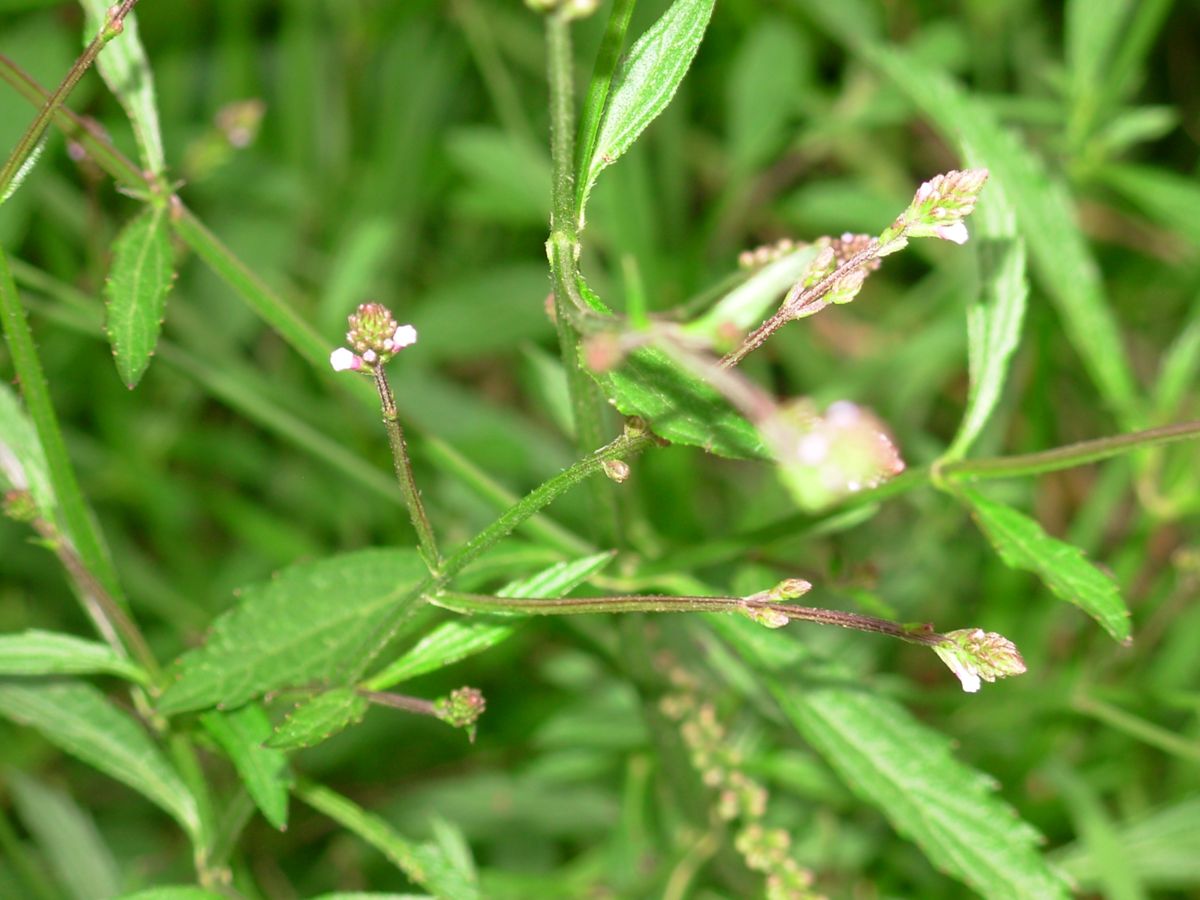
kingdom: Plantae
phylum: Tracheophyta
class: Magnoliopsida
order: Lamiales
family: Verbenaceae
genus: Verbena
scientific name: Verbena litoralis
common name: Seashore vervain
